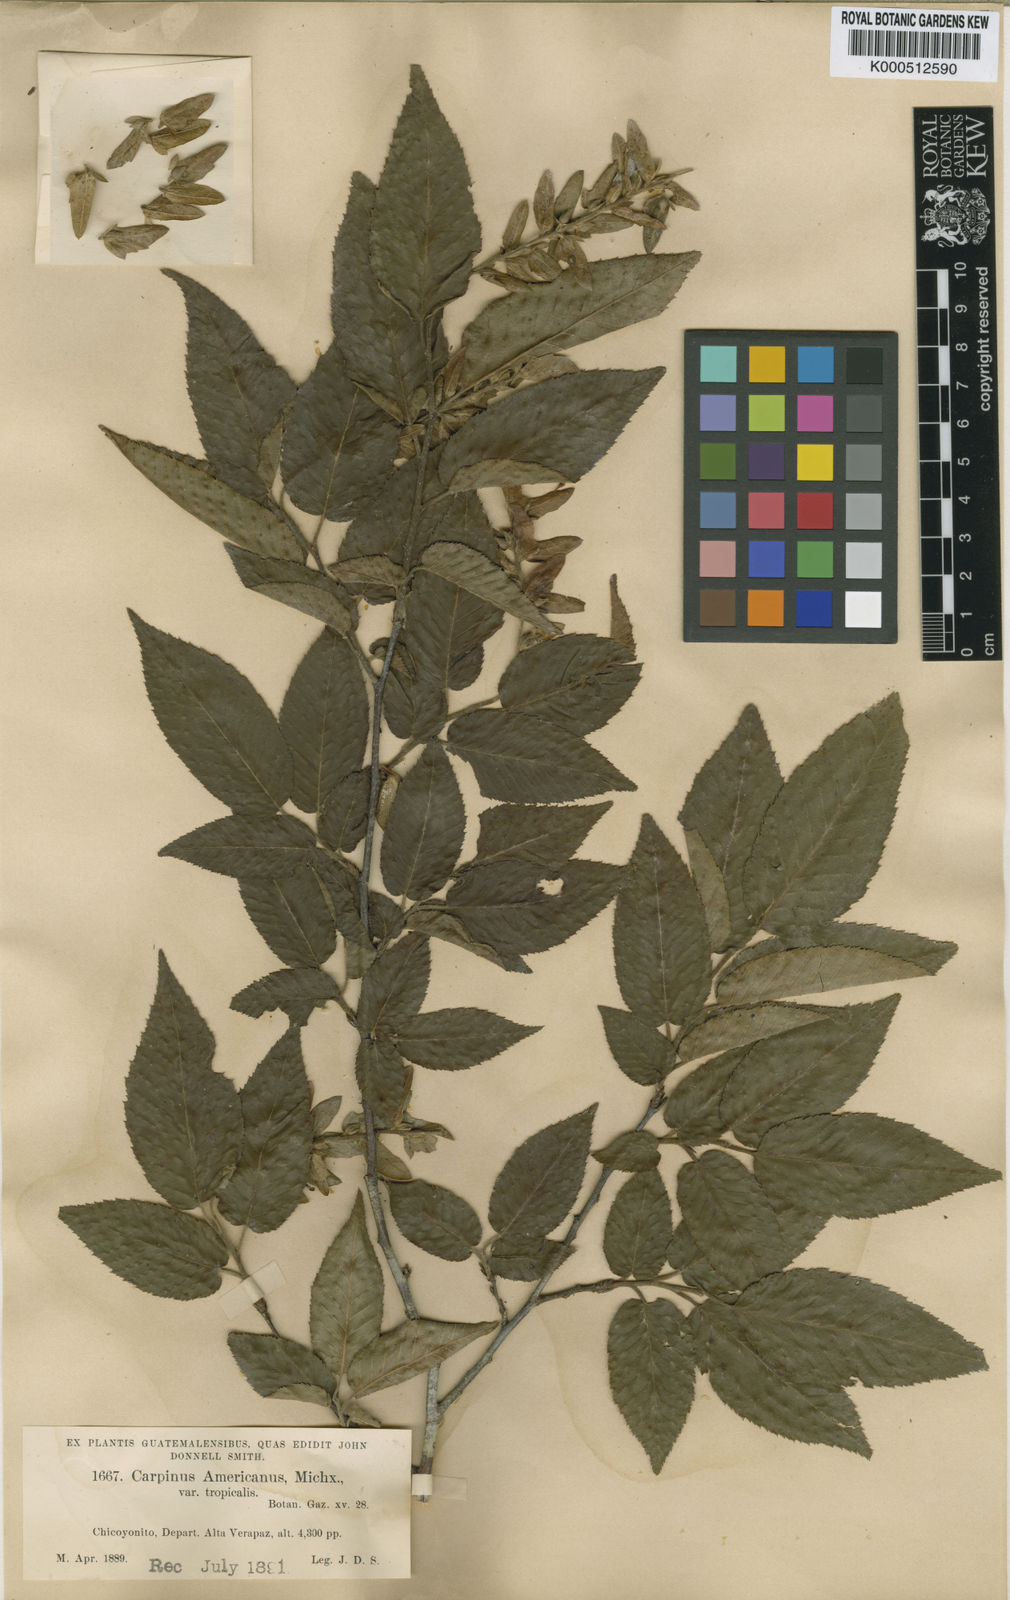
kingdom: Plantae
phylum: Tracheophyta
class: Magnoliopsida
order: Fagales
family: Betulaceae
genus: Carpinus
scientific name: Carpinus caroliniana
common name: American hornbeam
